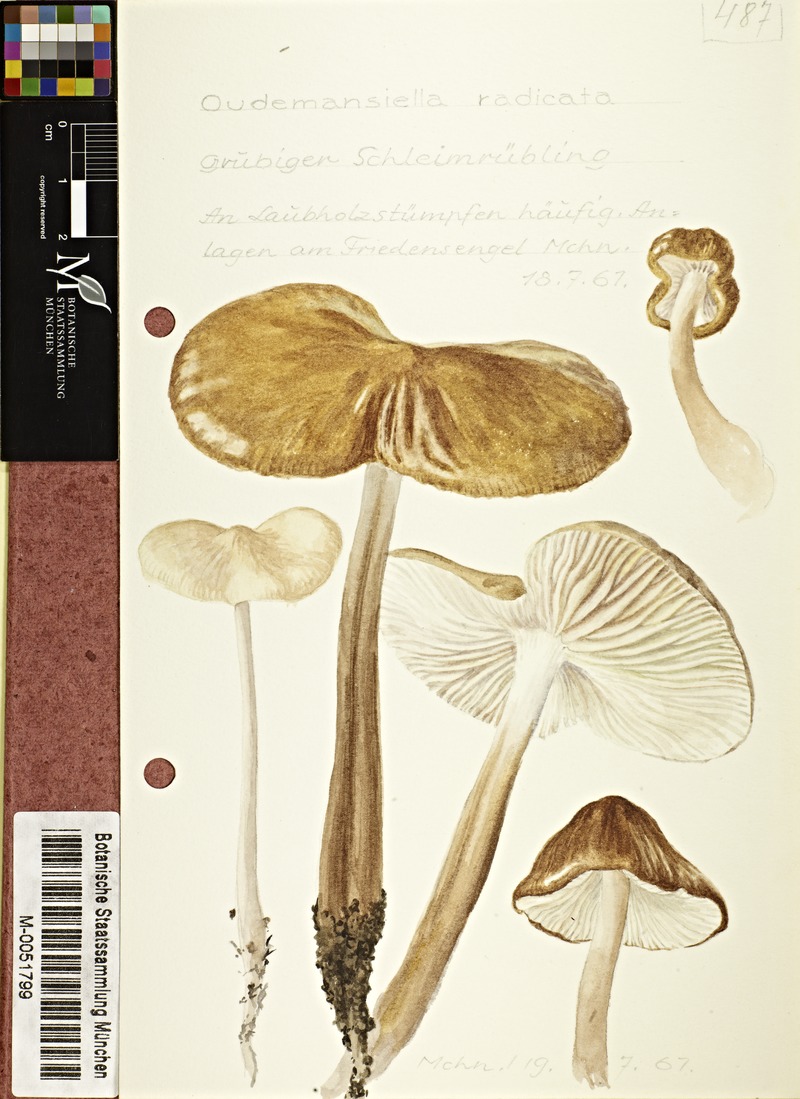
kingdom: Fungi
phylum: Basidiomycota
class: Agaricomycetes
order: Agaricales
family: Physalacriaceae
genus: Hymenopellis
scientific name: Hymenopellis radicata
